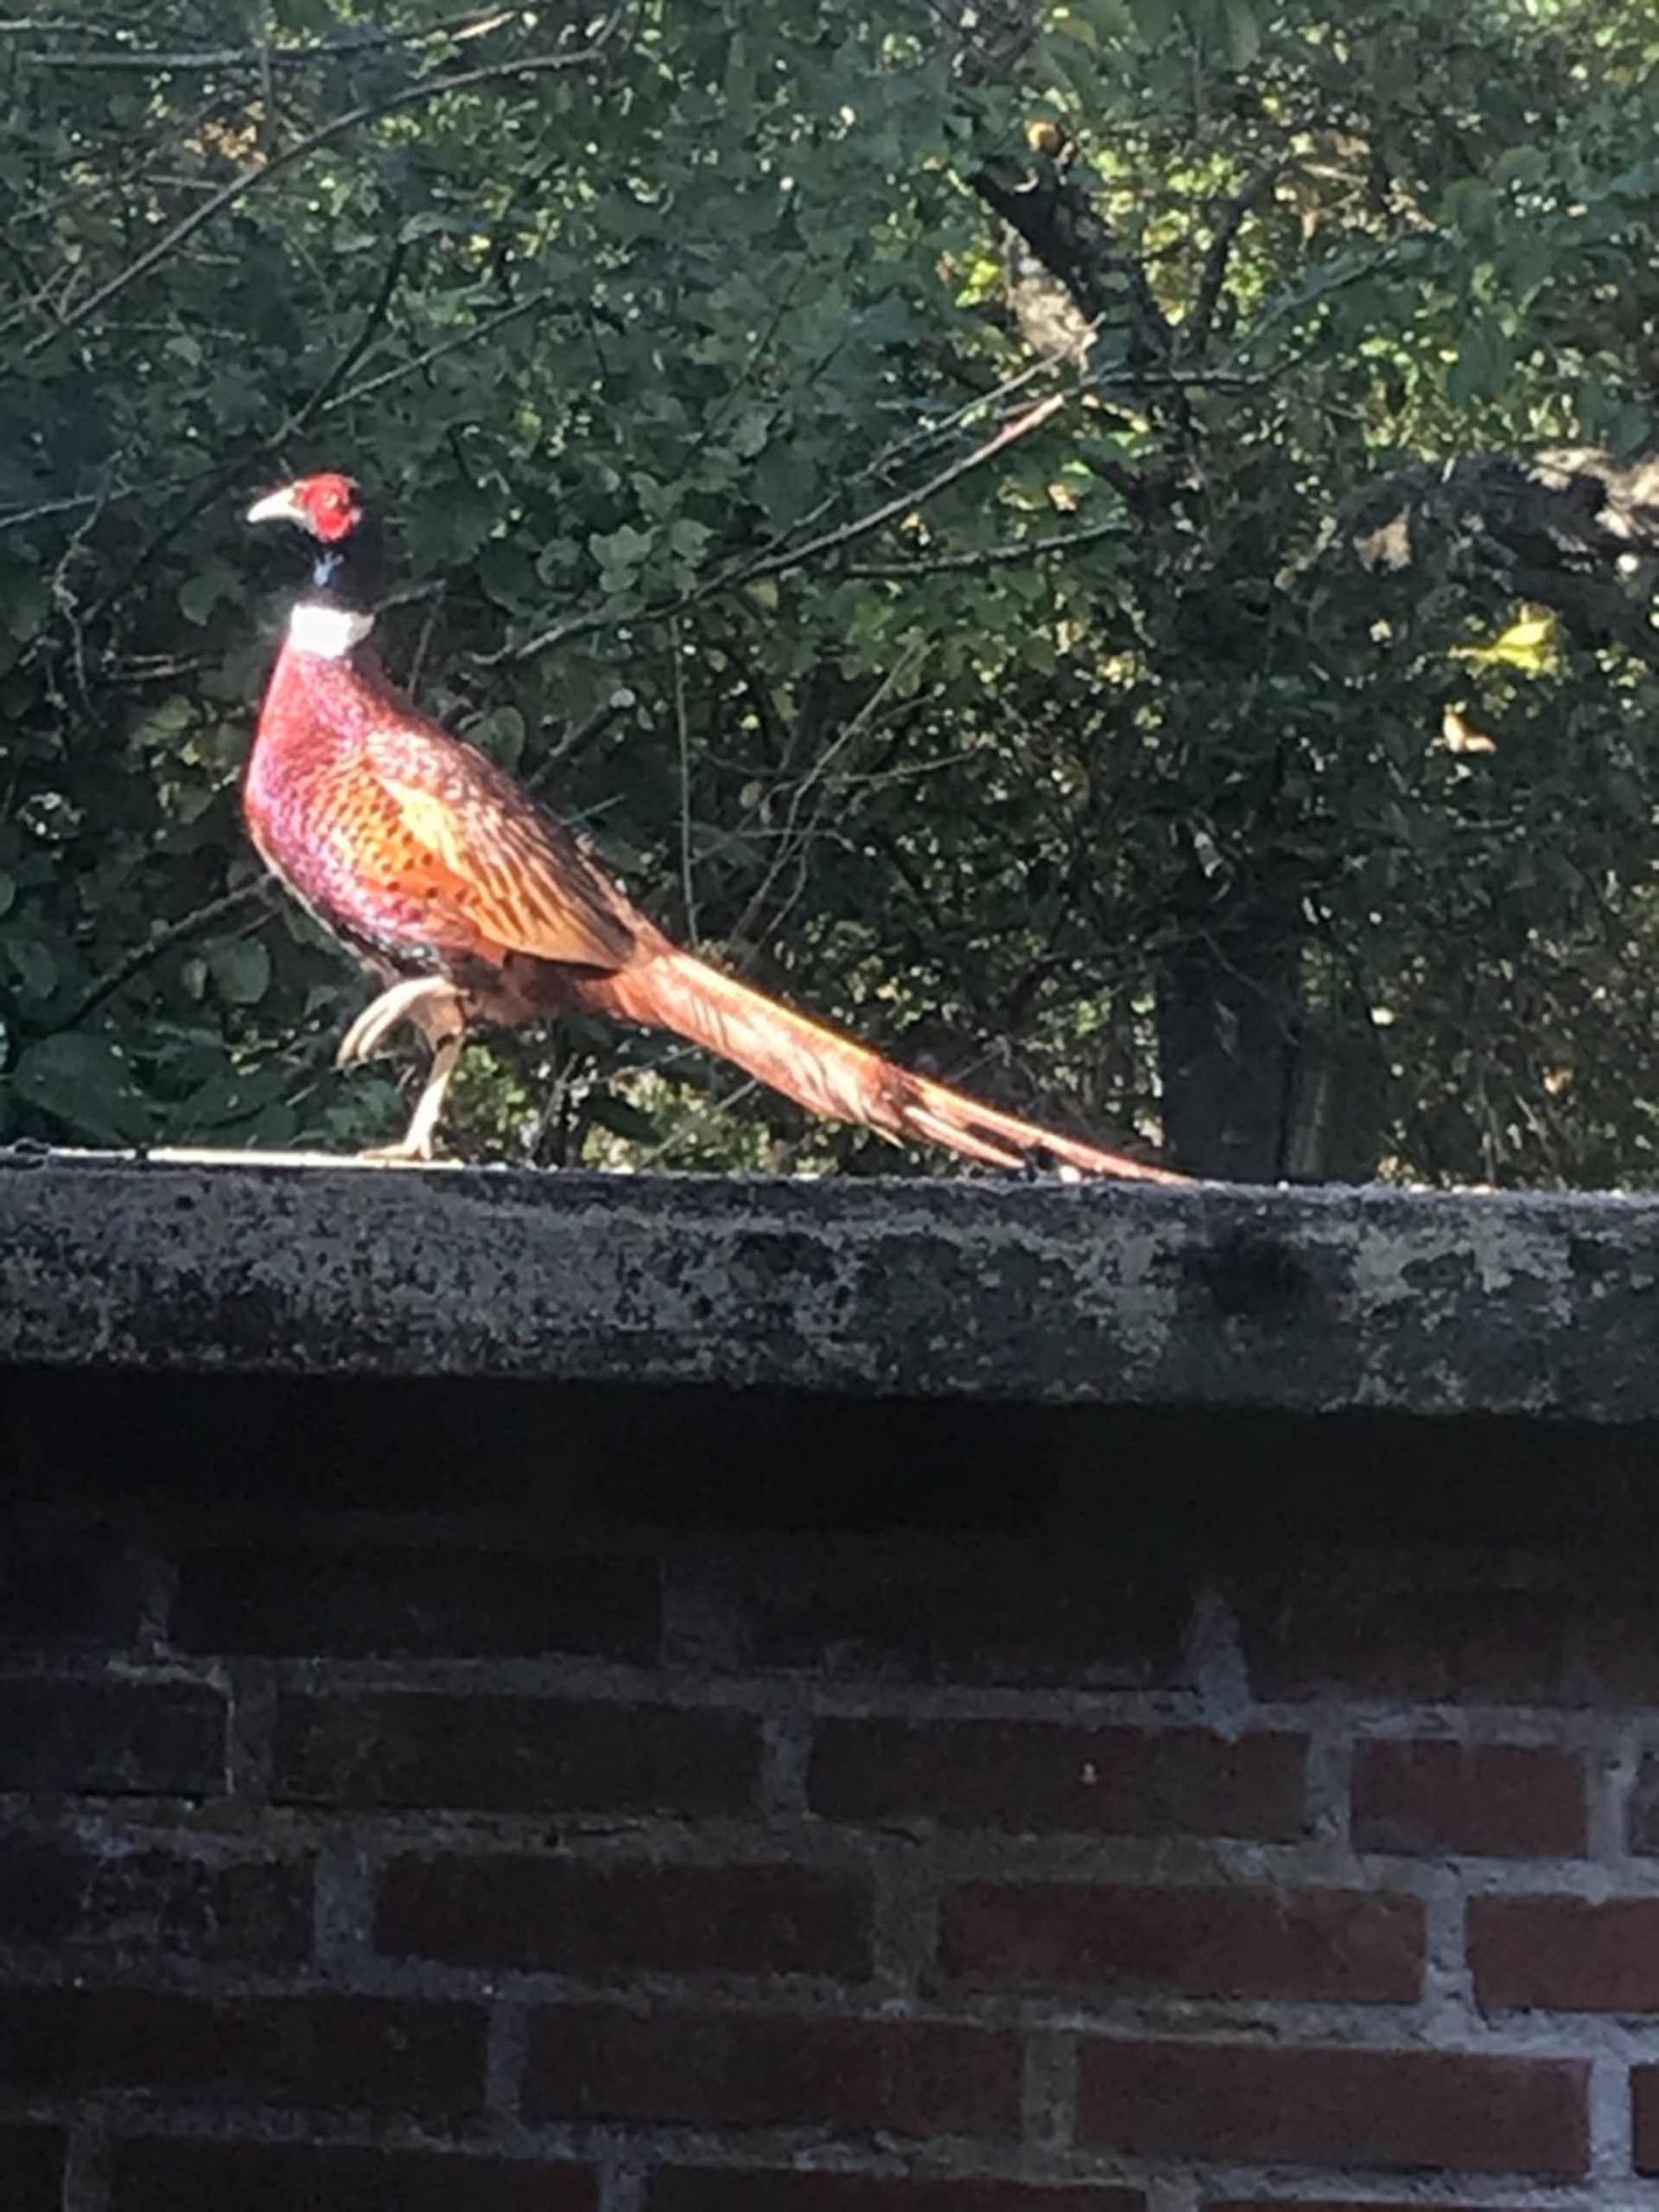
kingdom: Animalia
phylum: Chordata
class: Aves
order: Galliformes
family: Phasianidae
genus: Phasianus
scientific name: Phasianus colchicus
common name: Fasan
